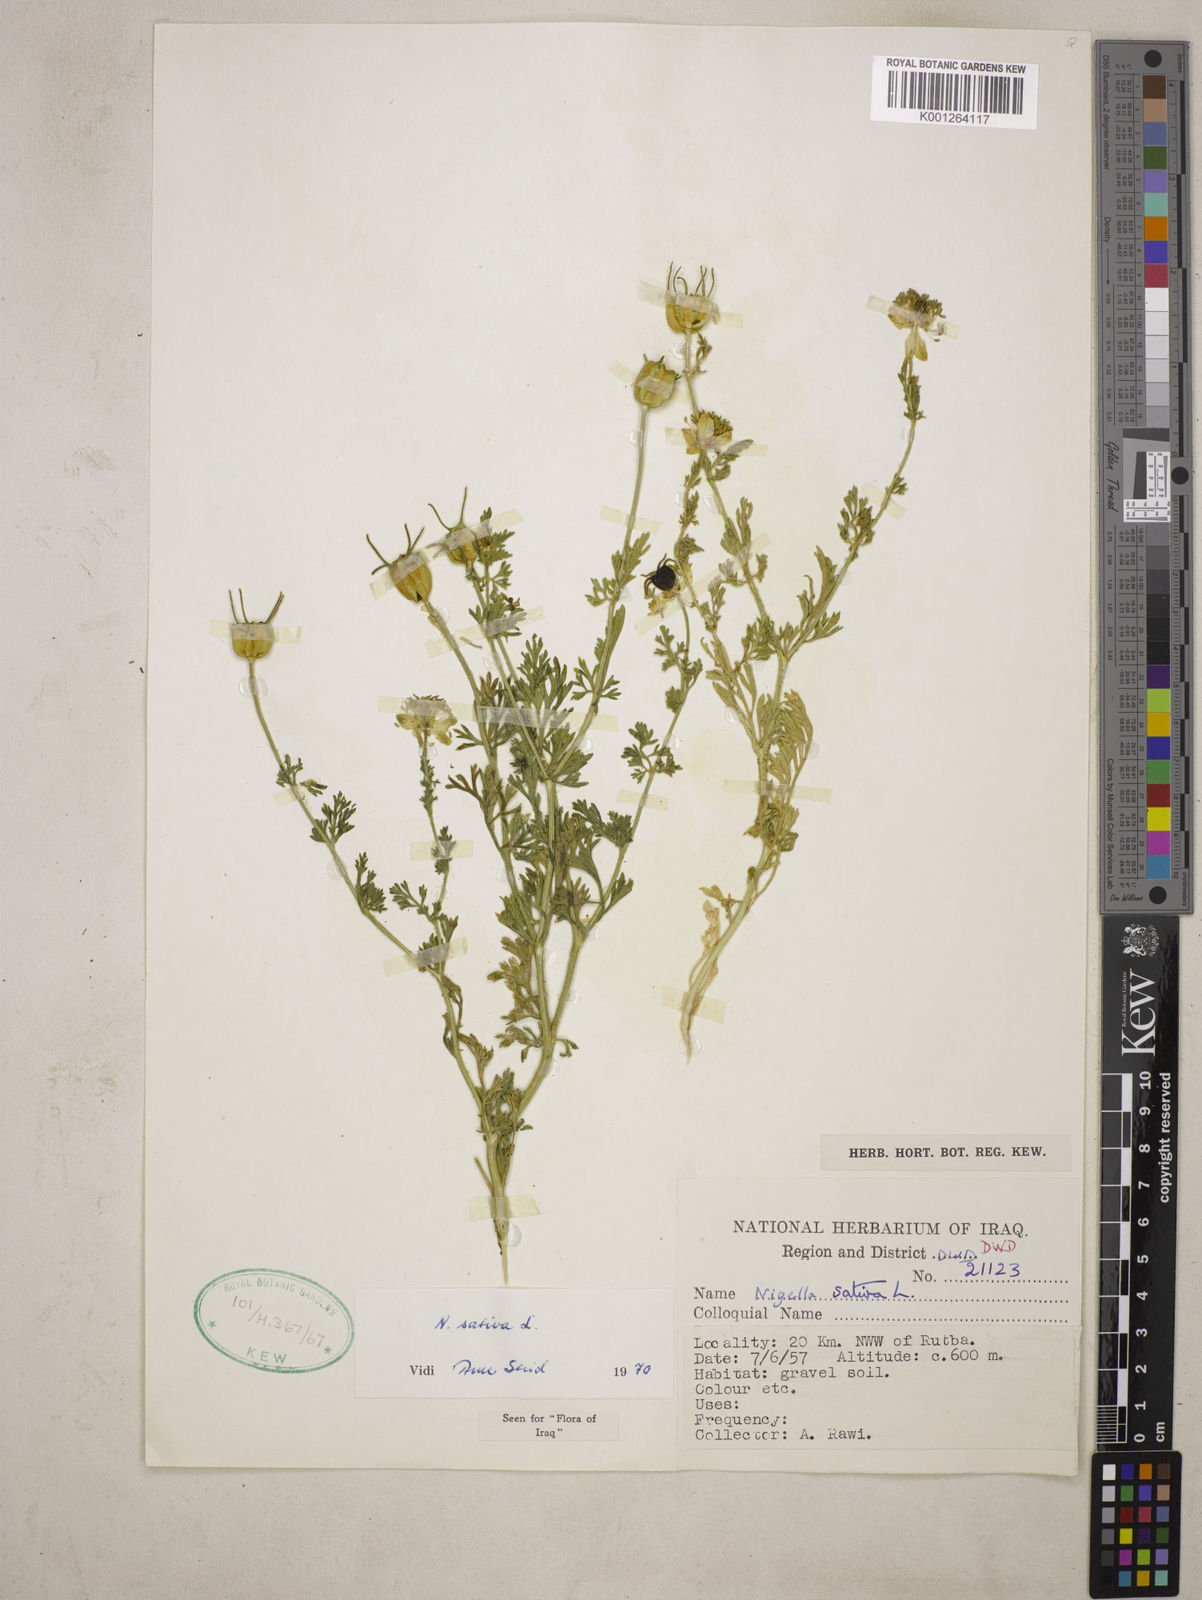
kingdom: Plantae
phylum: Tracheophyta
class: Magnoliopsida
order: Ranunculales
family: Ranunculaceae
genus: Nigella
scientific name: Nigella sativa
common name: Black-cumin
